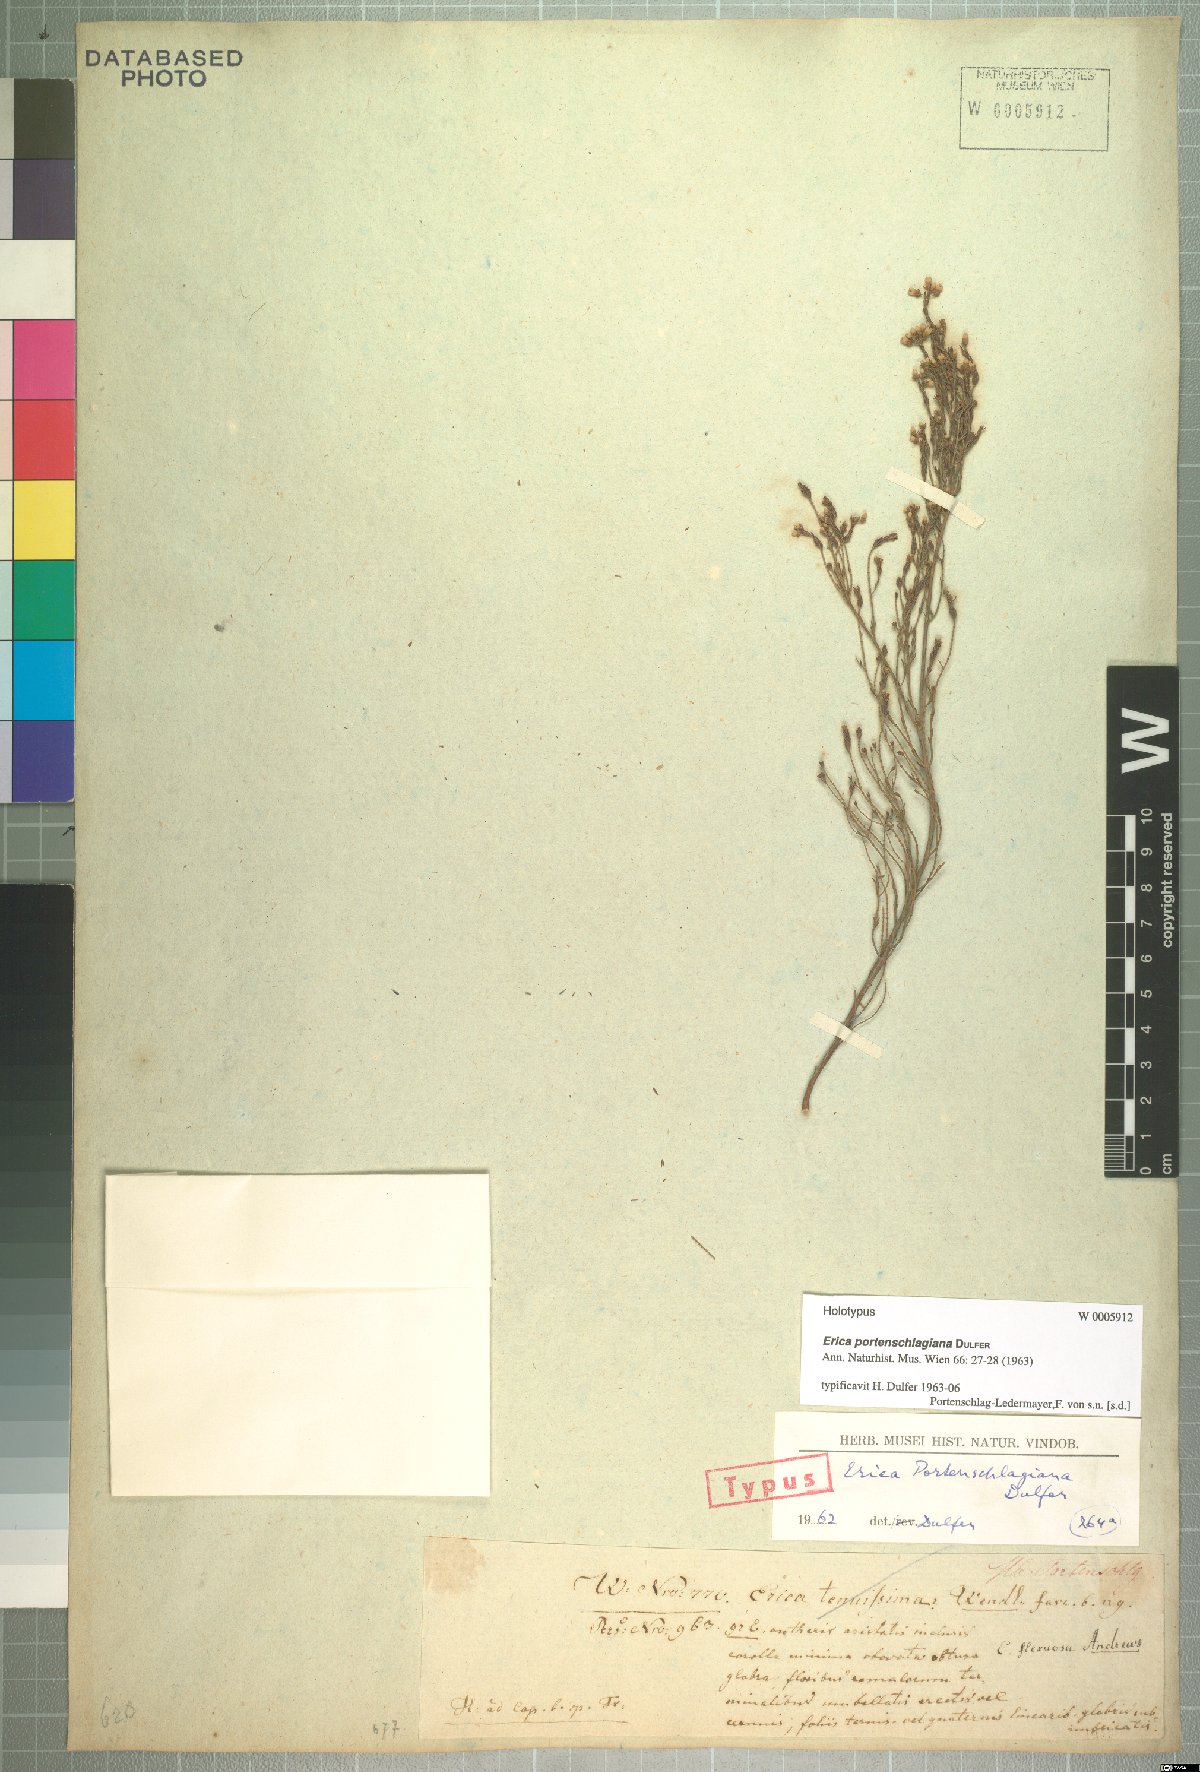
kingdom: Plantae
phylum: Tracheophyta
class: Magnoliopsida
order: Ericales
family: Ericaceae
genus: Erica
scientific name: Erica portenschlagiana
